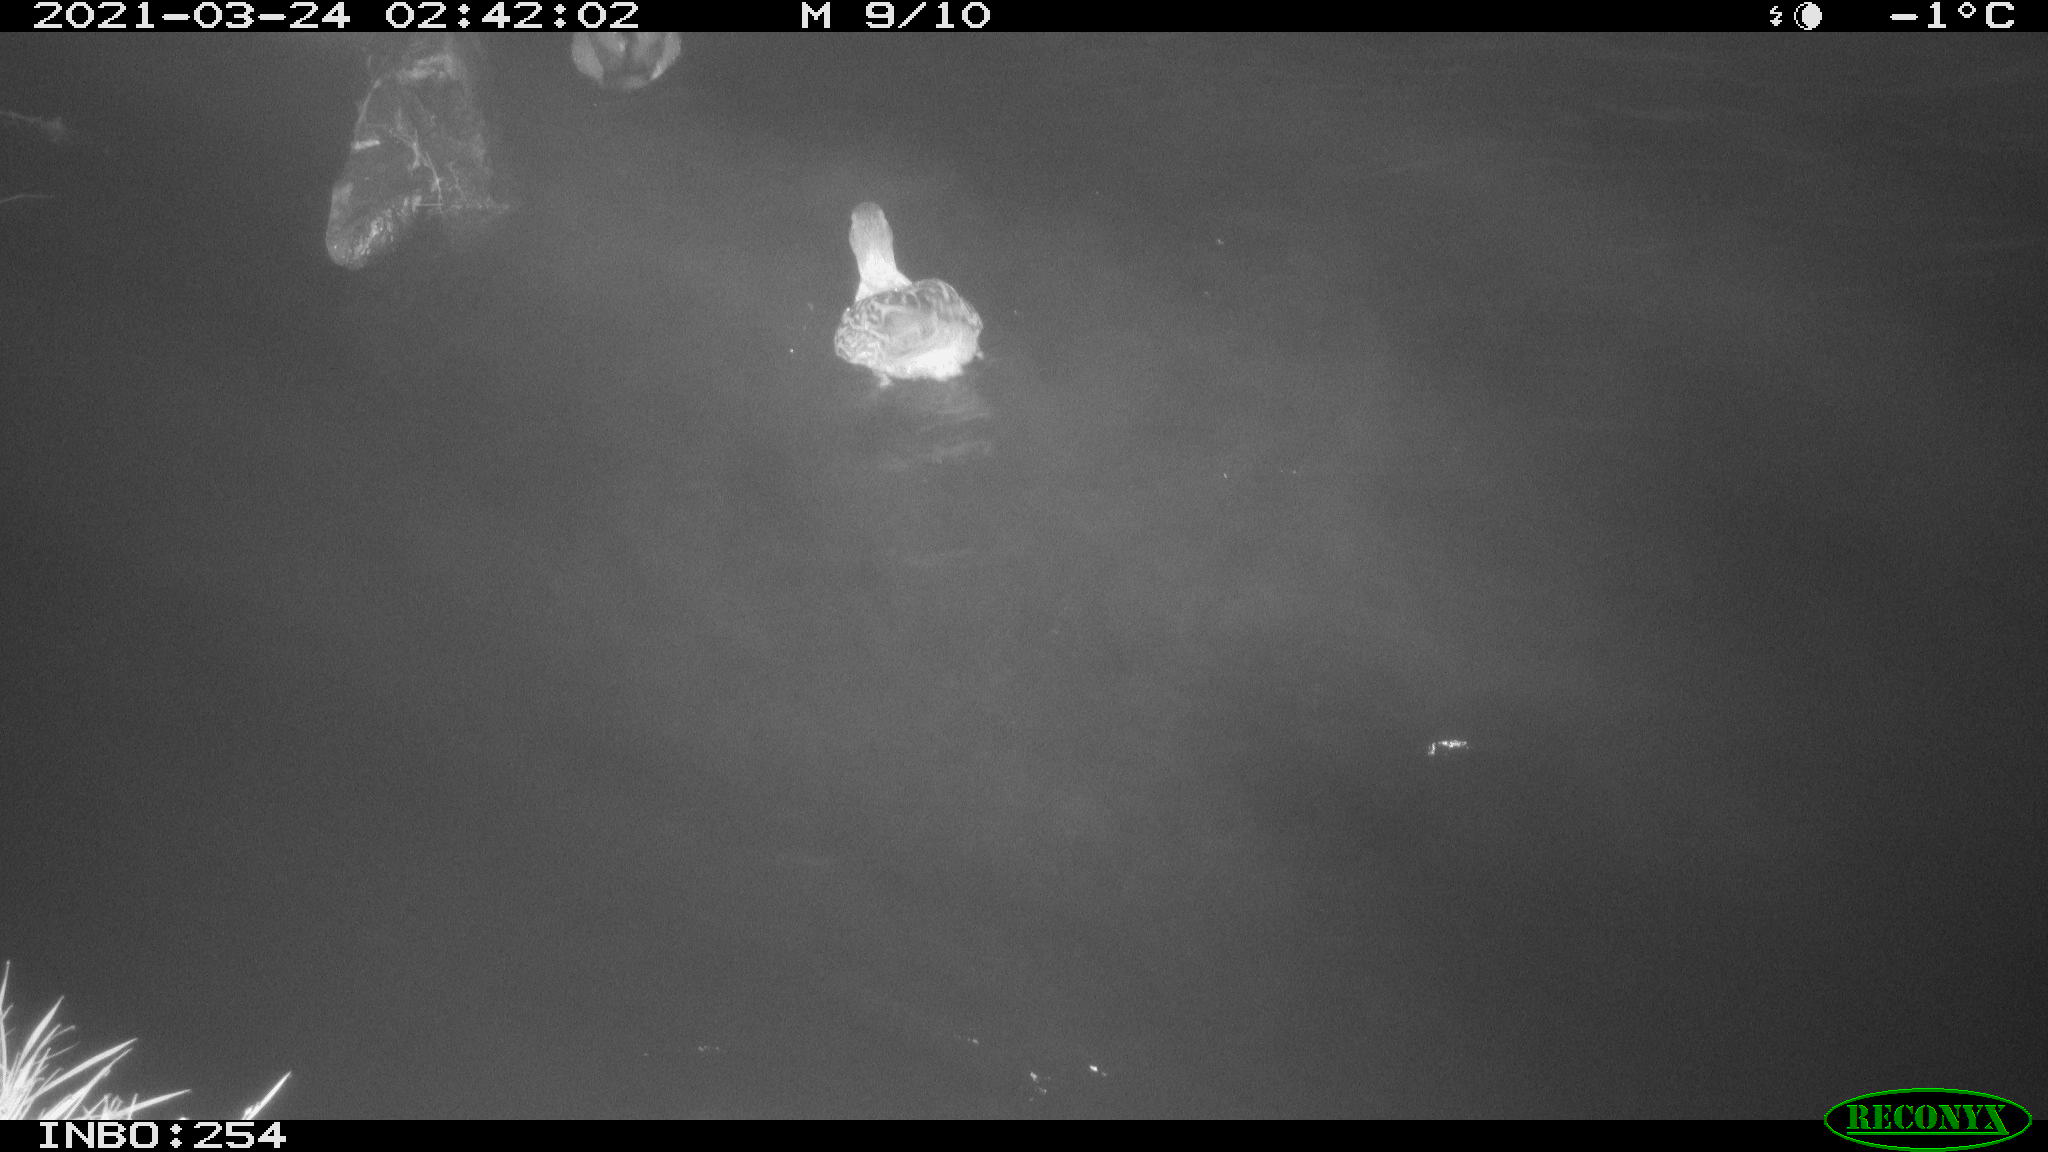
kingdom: Animalia
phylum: Chordata
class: Aves
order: Anseriformes
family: Anatidae
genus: Anas
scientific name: Anas platyrhynchos
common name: Mallard
